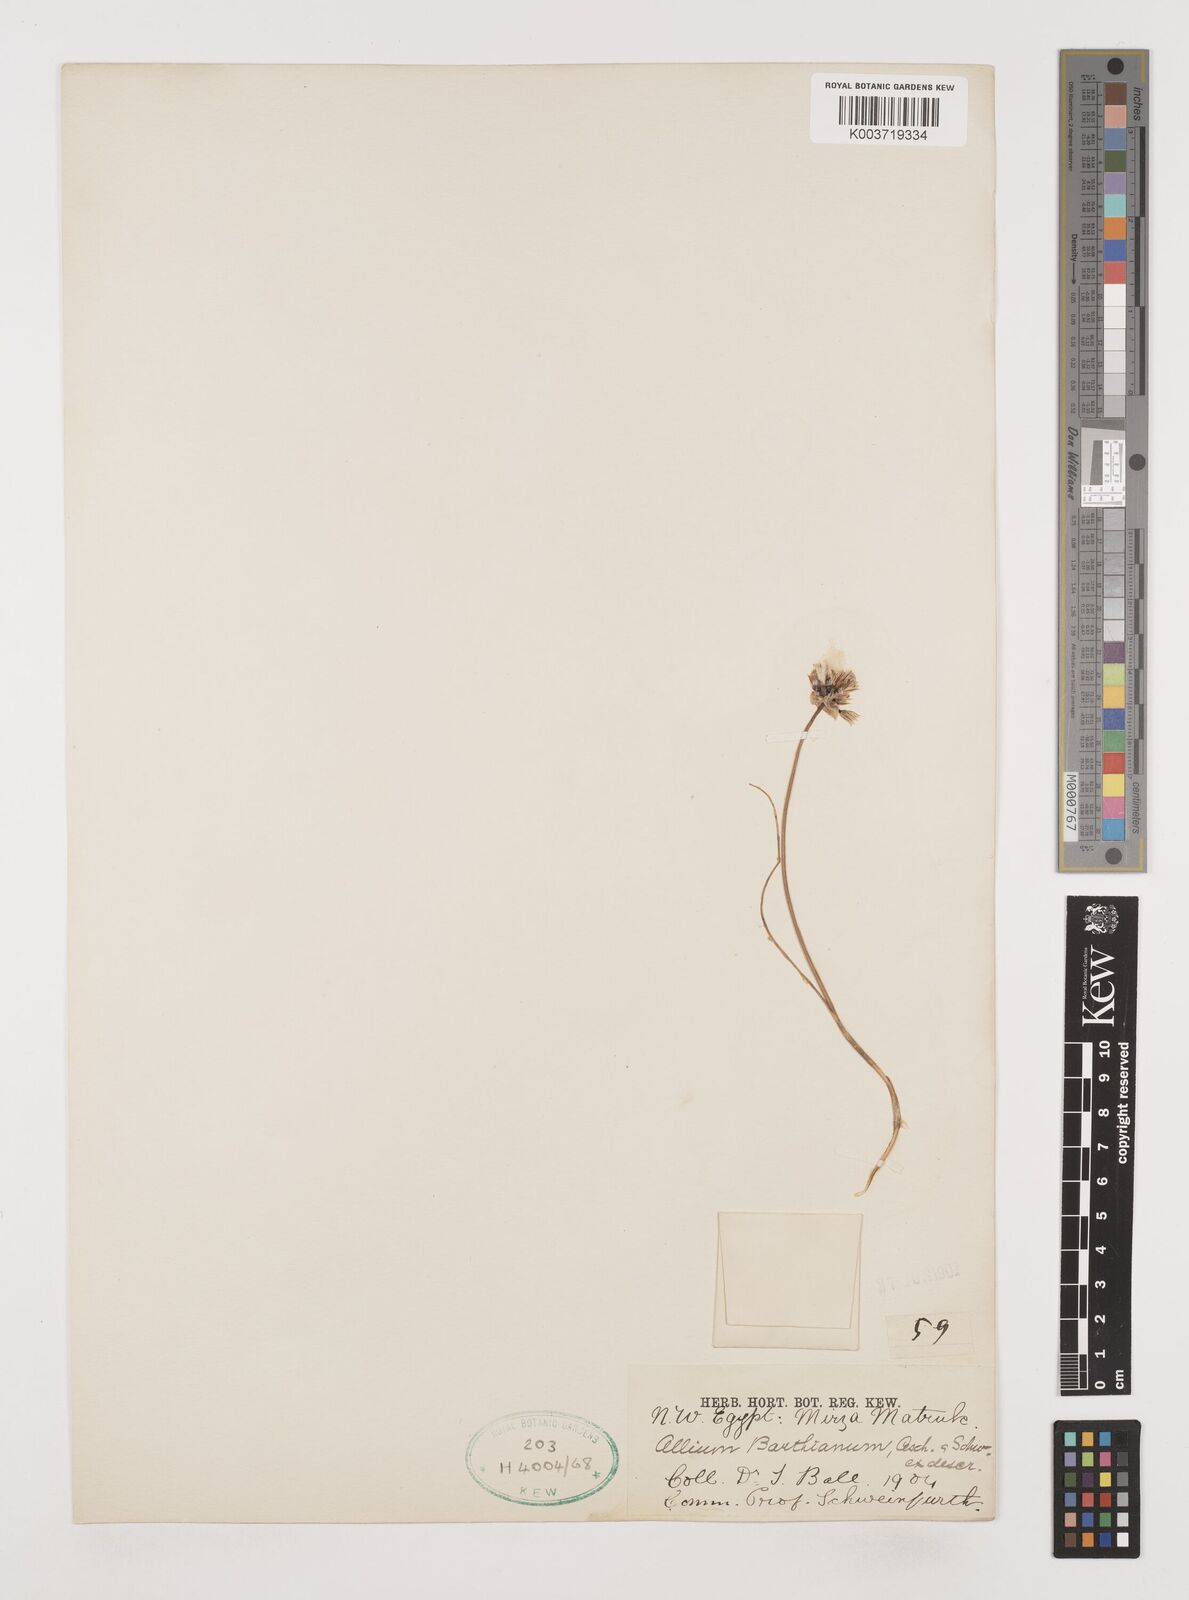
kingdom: Plantae
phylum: Tracheophyta
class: Liliopsida
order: Asparagales
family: Amaryllidaceae
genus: Allium
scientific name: Allium barthianum
